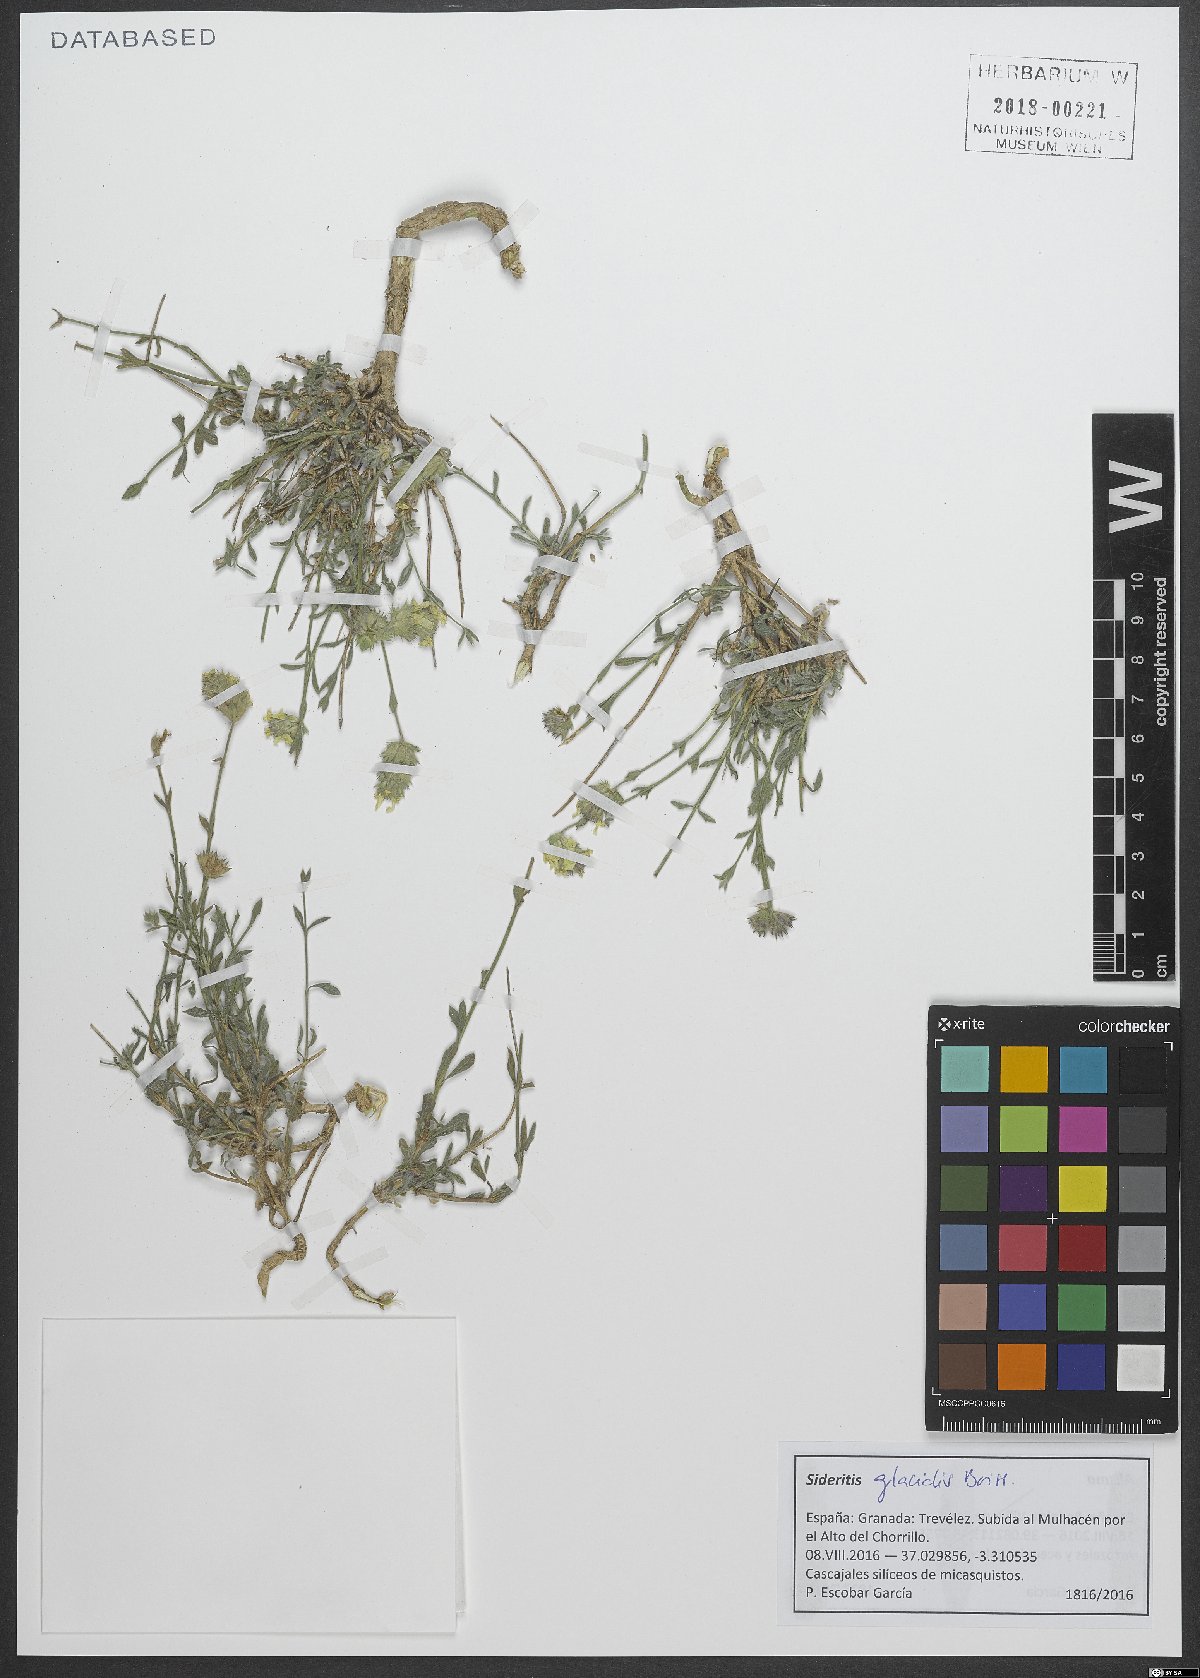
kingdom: Plantae
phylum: Tracheophyta
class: Magnoliopsida
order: Lamiales
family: Lamiaceae
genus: Sideritis
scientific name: Sideritis glacialis
